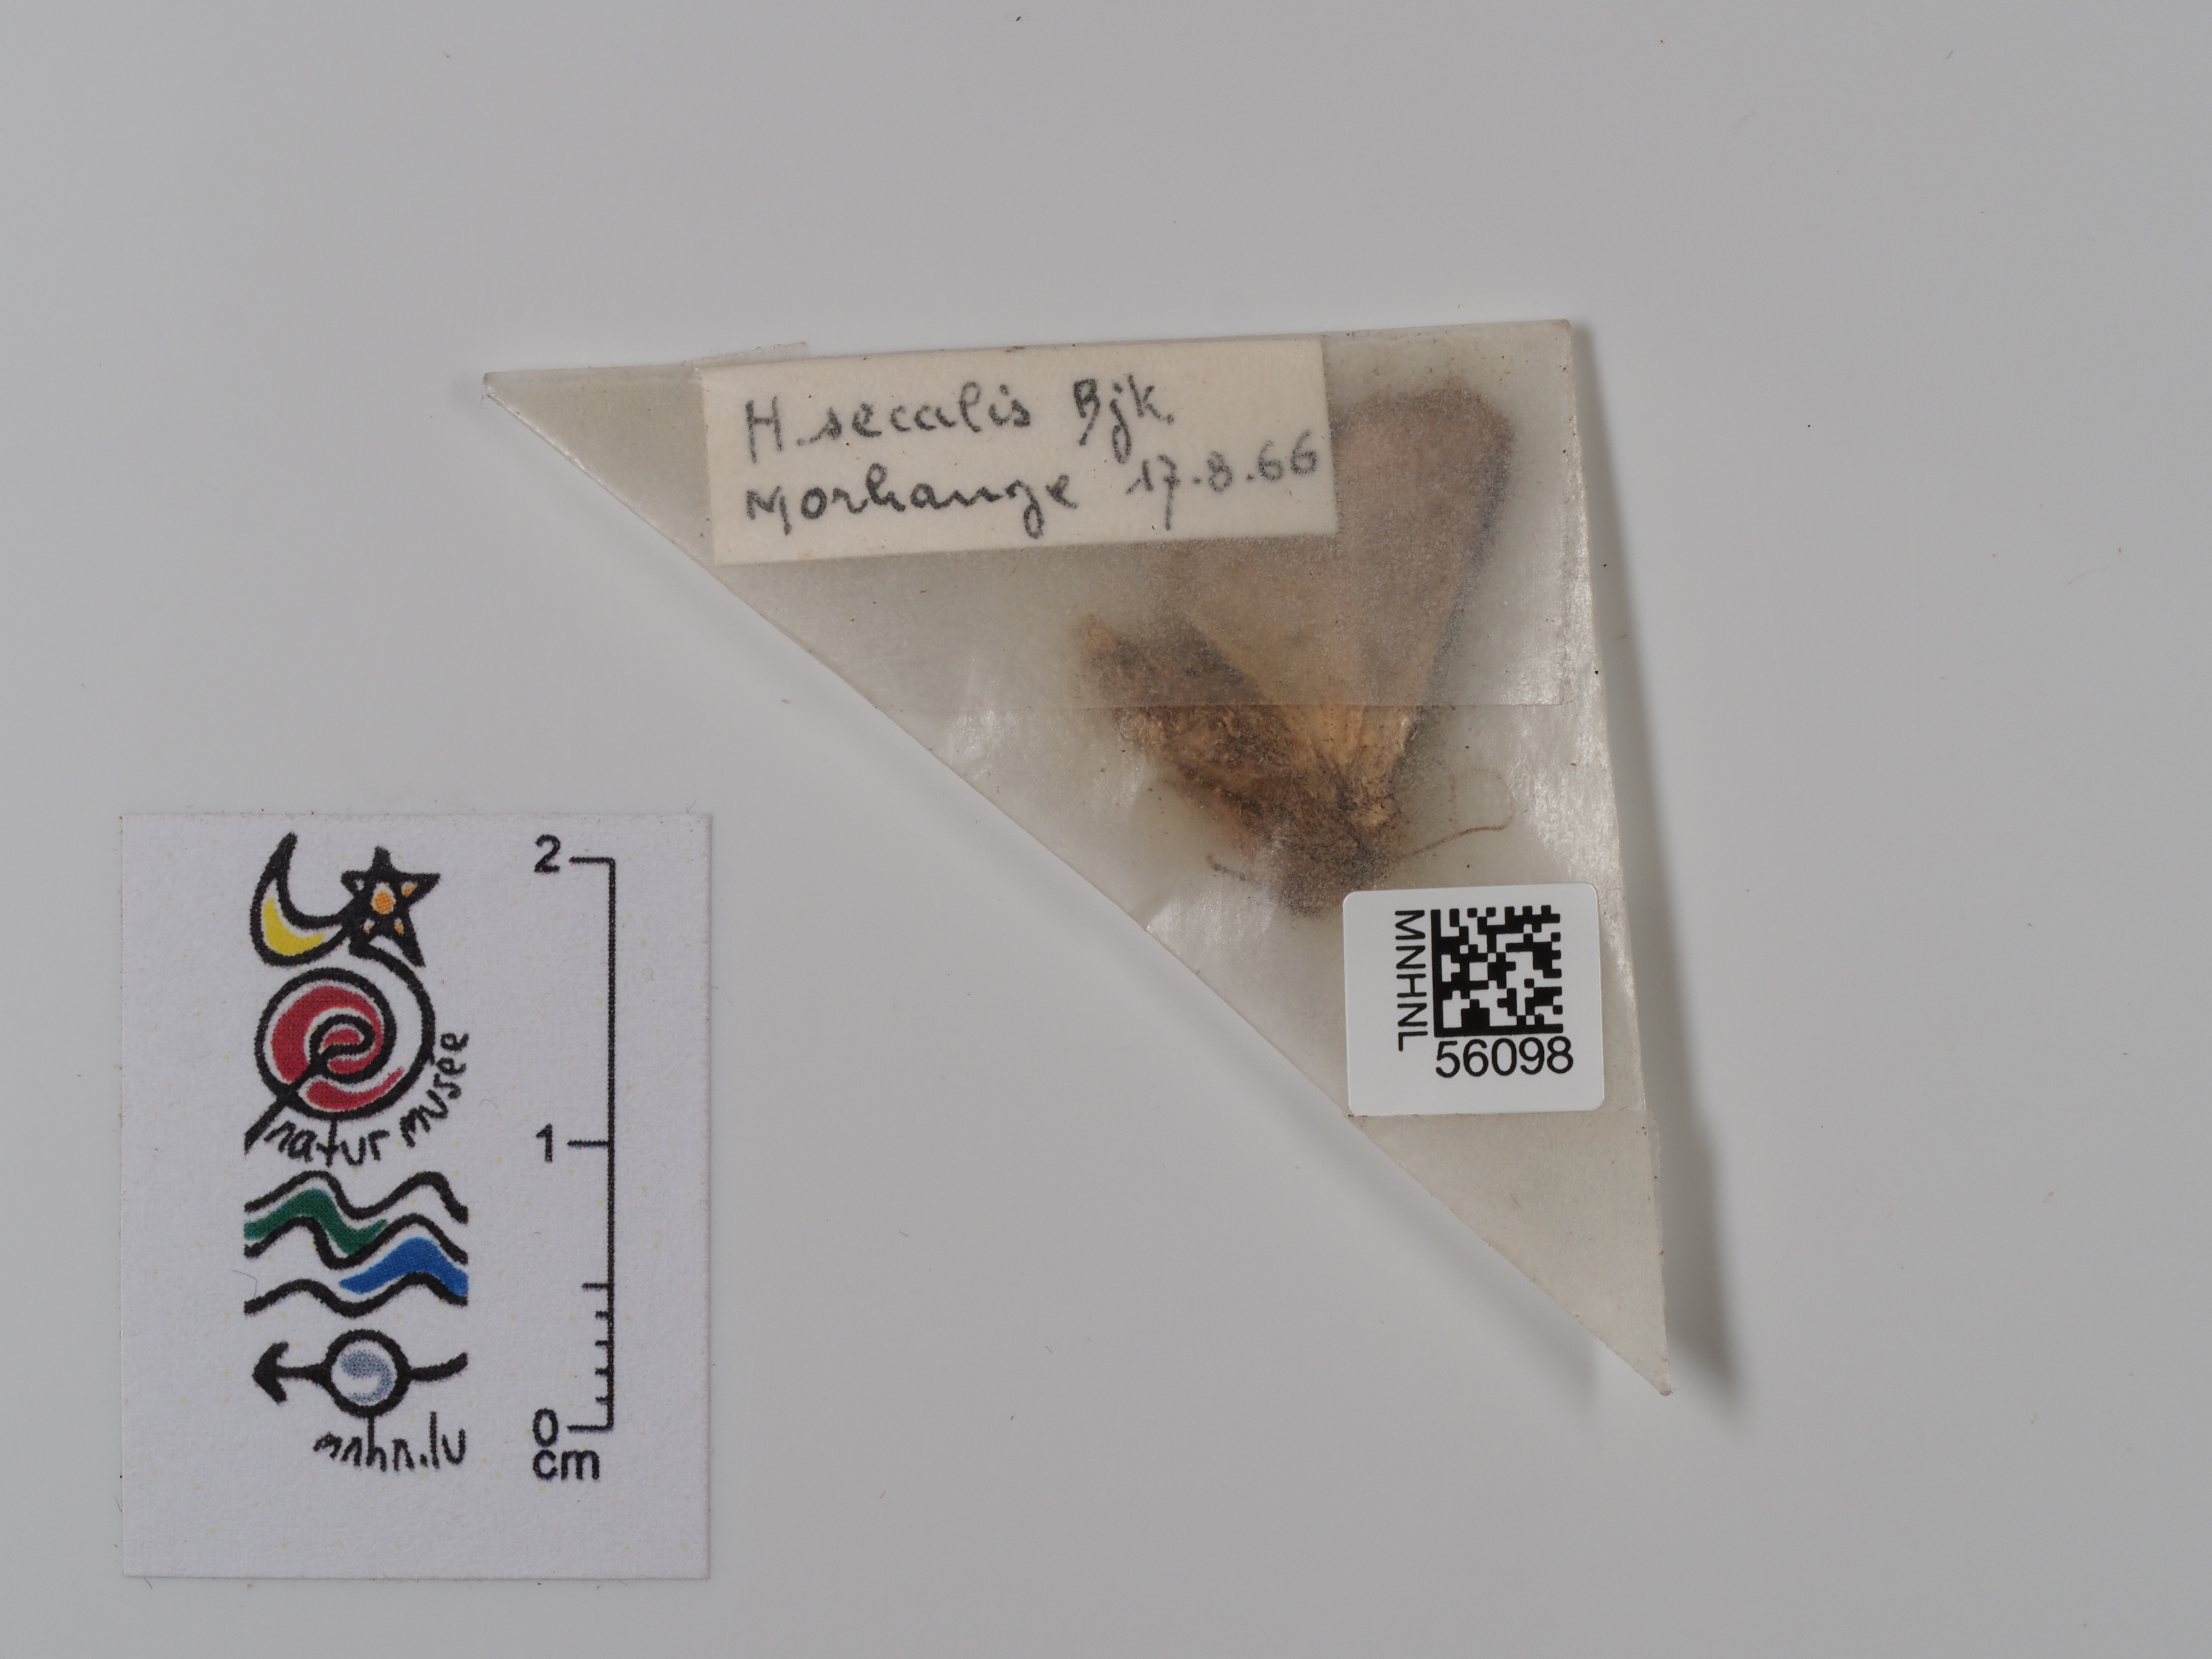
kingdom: Animalia
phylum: Arthropoda
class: Insecta
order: Lepidoptera
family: Noctuidae
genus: Mesapamea
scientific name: Mesapamea secalis
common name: Common rustic
